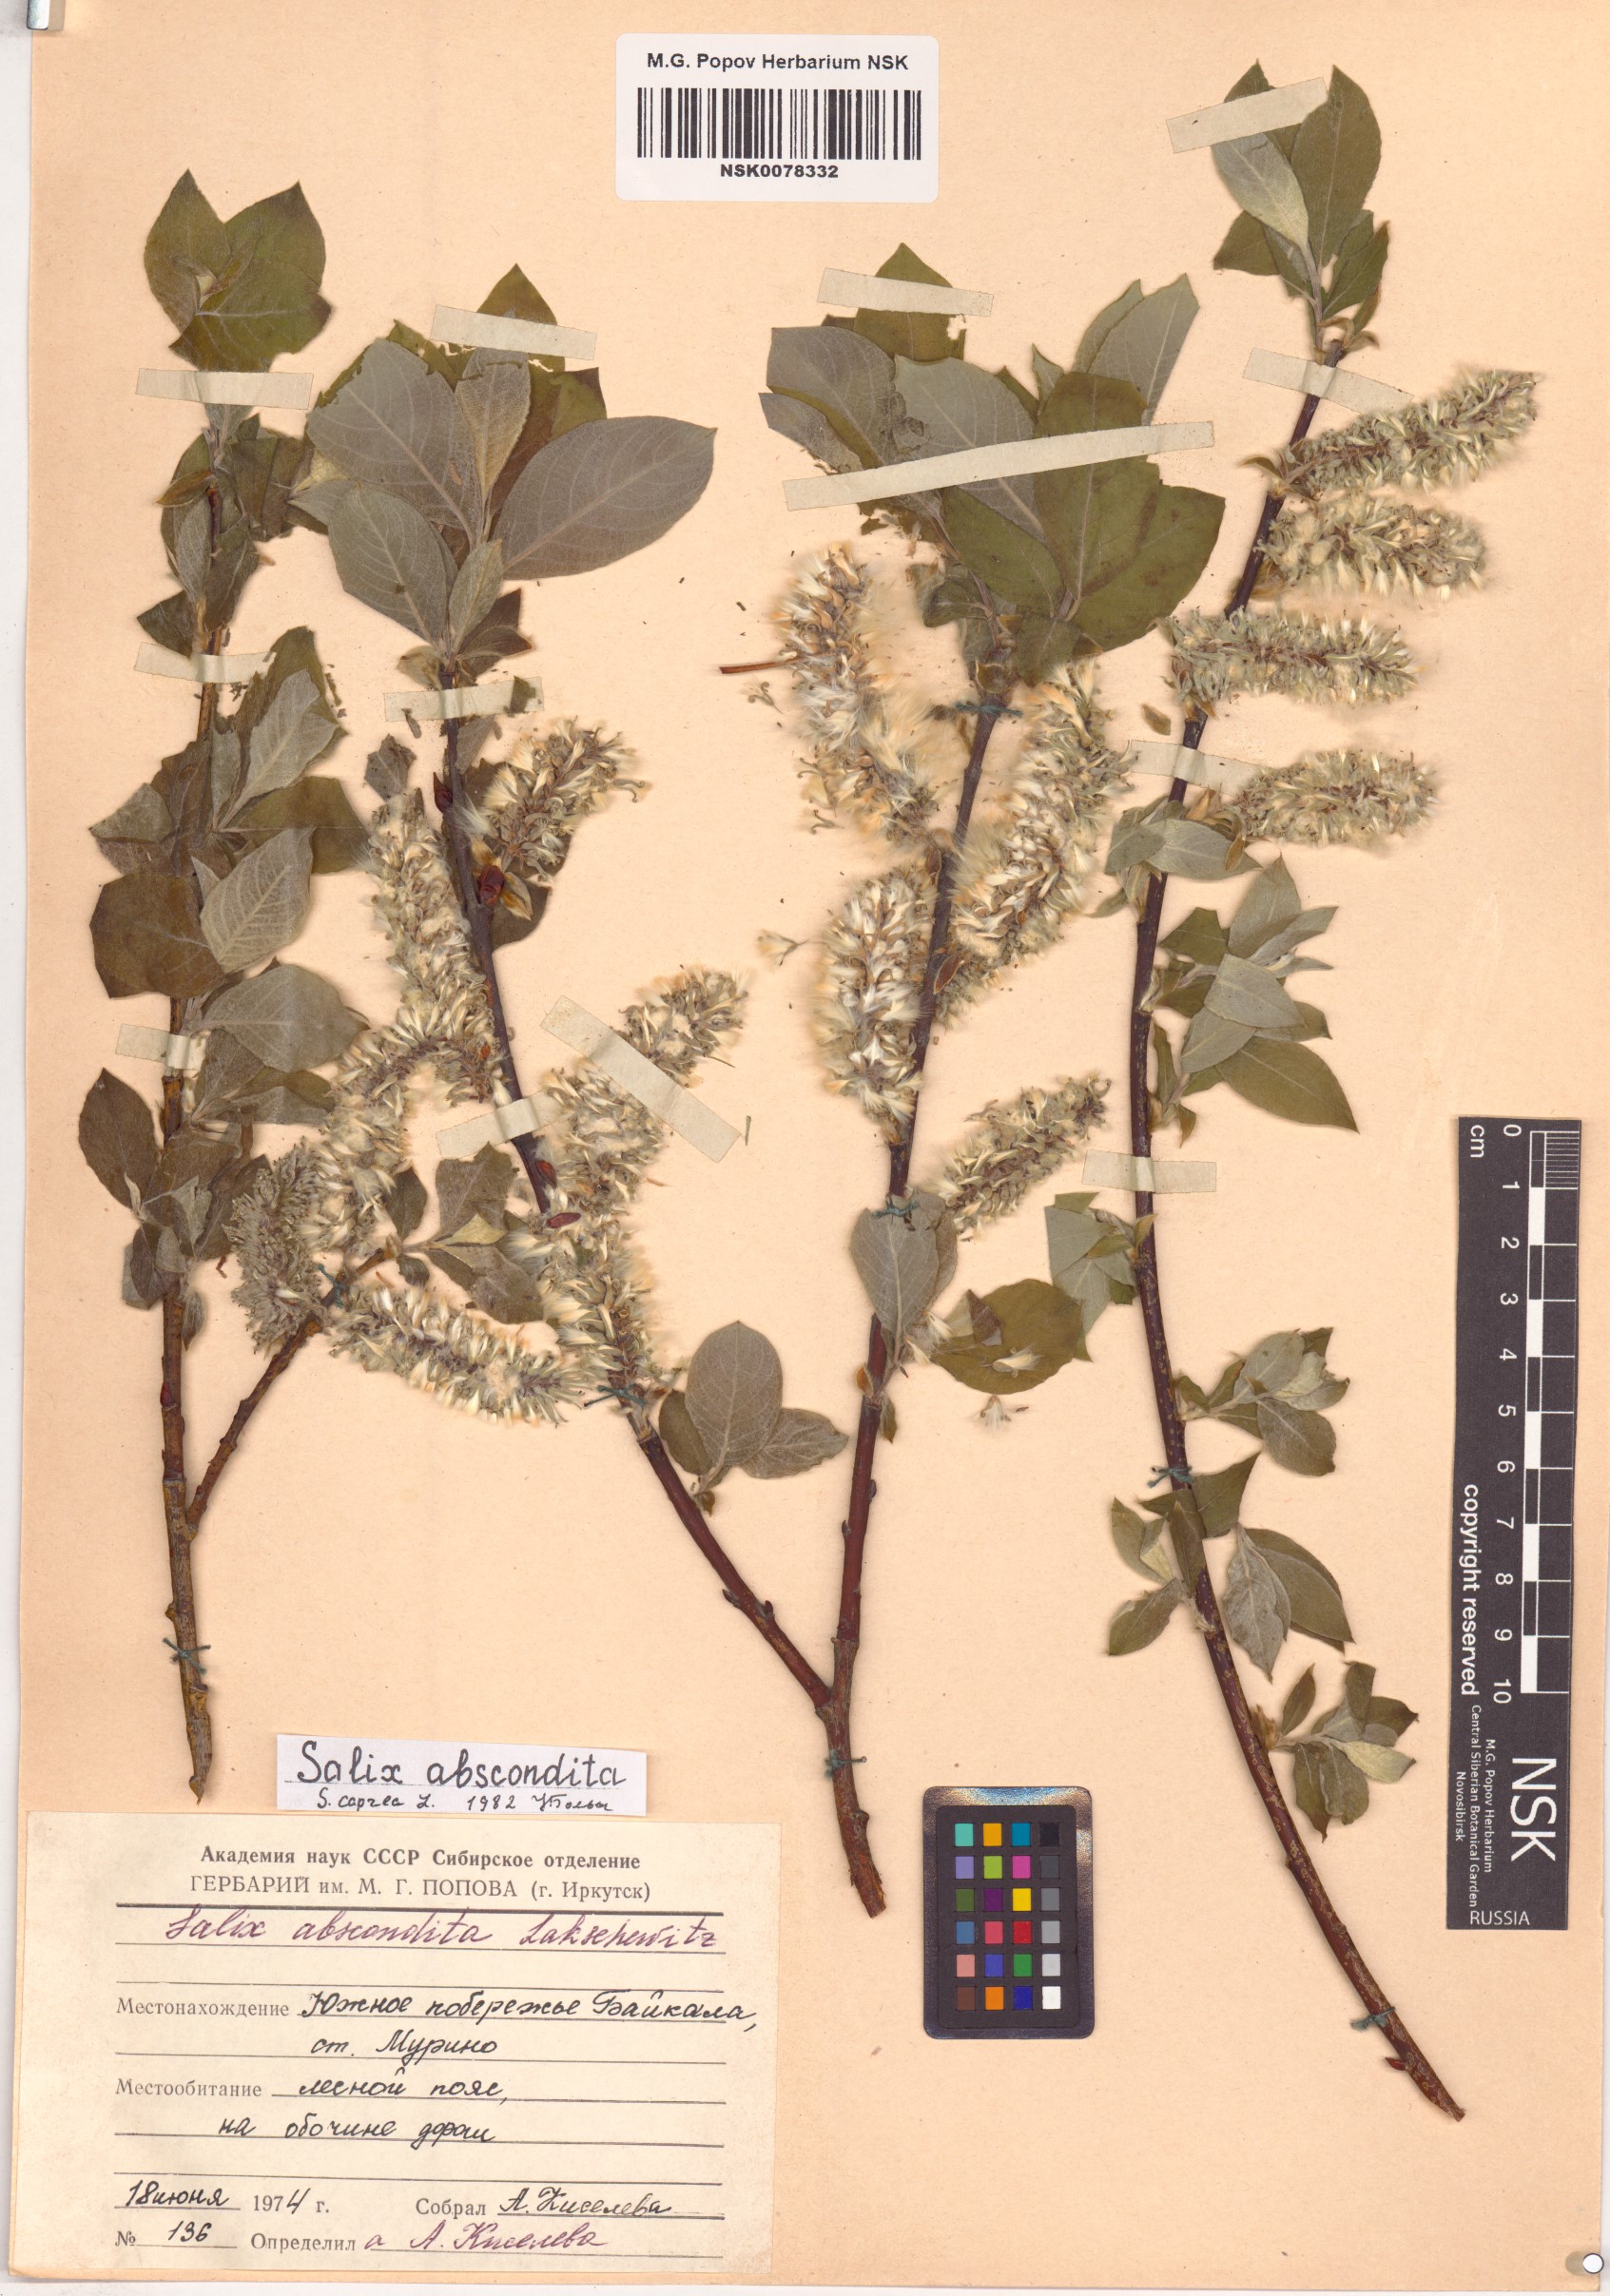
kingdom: Plantae
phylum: Tracheophyta
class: Magnoliopsida
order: Malpighiales
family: Salicaceae
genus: Salix
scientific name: Salix caprea
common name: Goat willow
